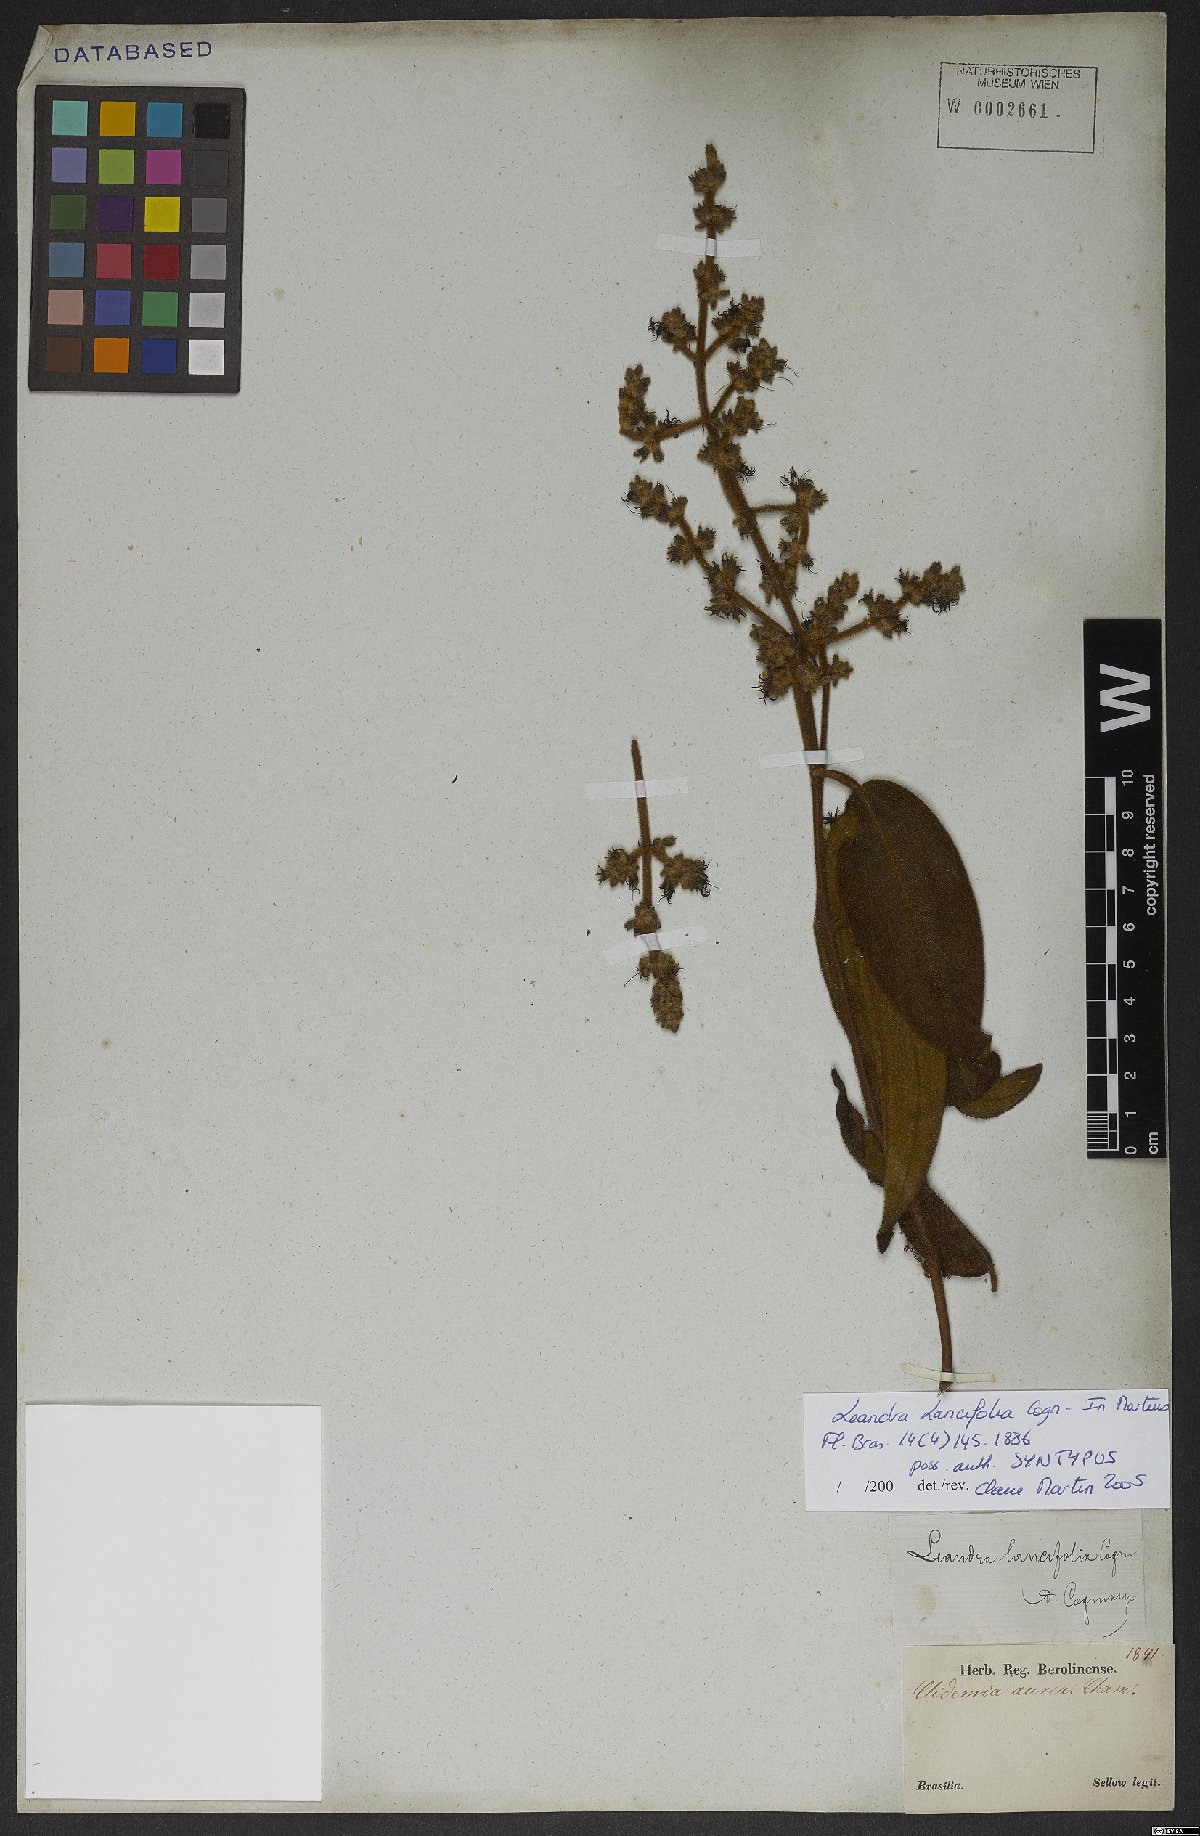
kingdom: Plantae
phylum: Tracheophyta
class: Magnoliopsida
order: Myrtales
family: Melastomataceae
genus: Miconia
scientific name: Miconia lealancifolia
